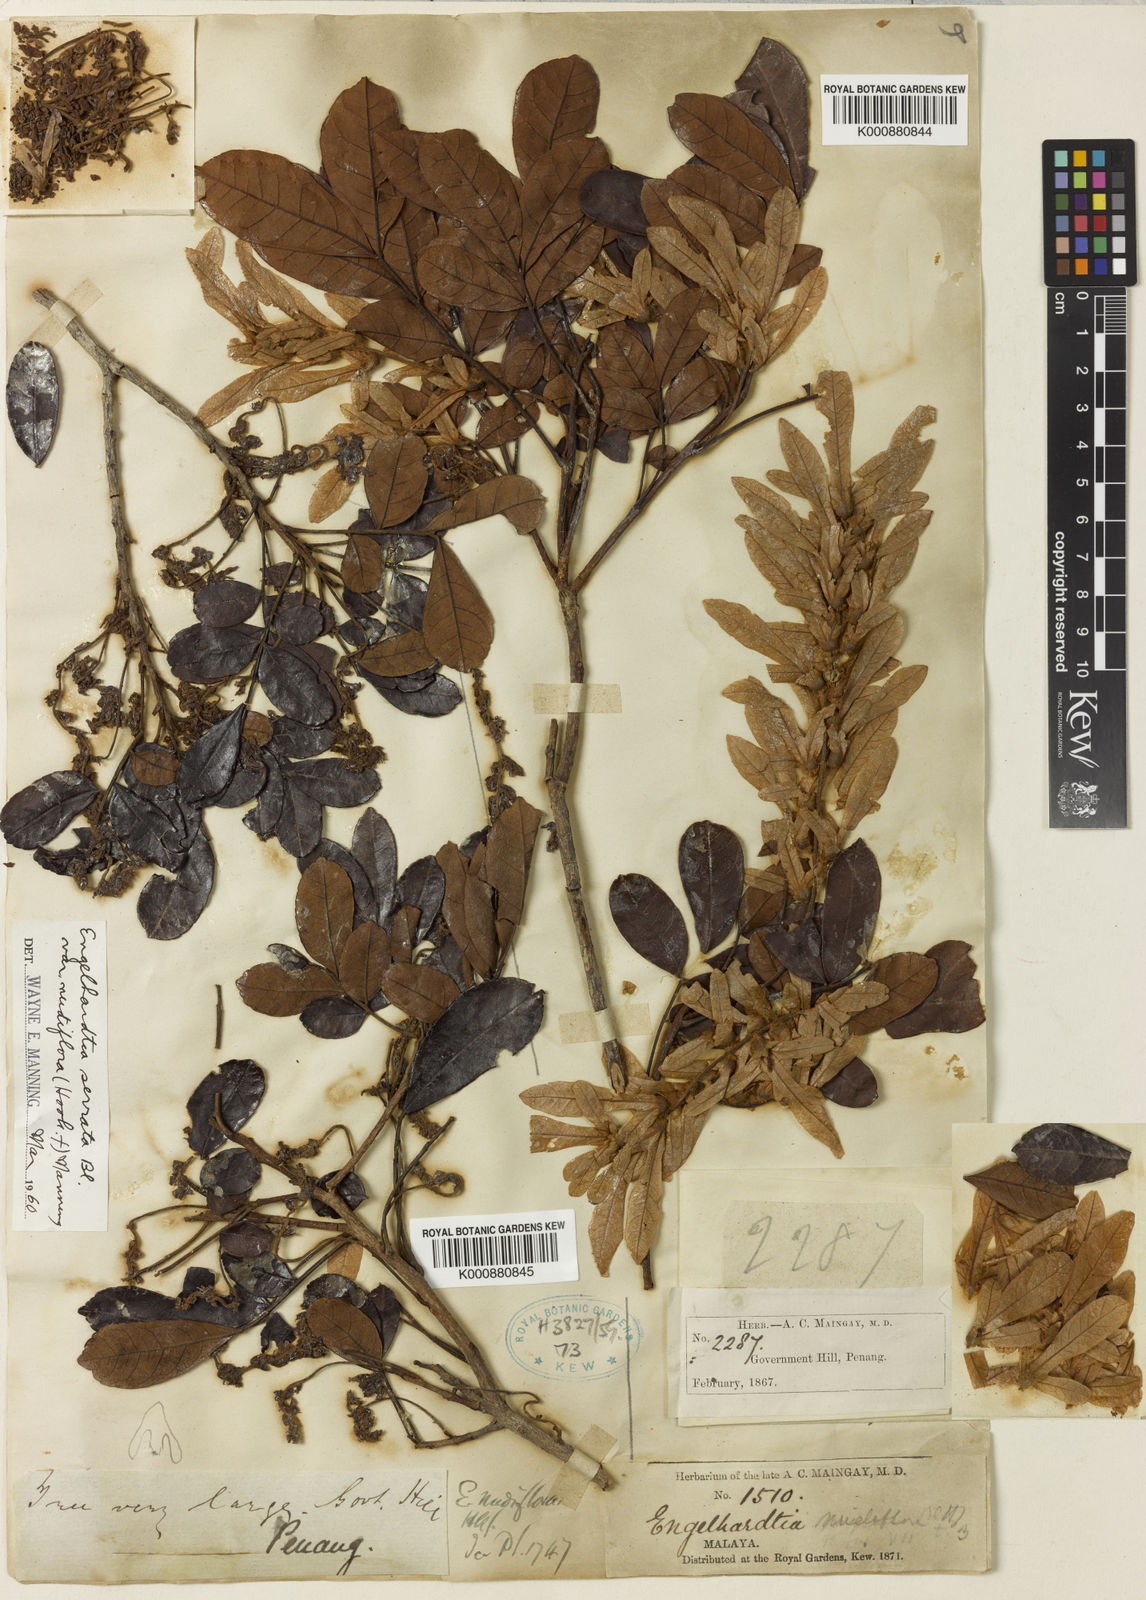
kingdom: Plantae
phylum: Tracheophyta
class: Magnoliopsida
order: Fagales
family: Juglandaceae
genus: Engelhardia
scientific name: Engelhardia serrata
